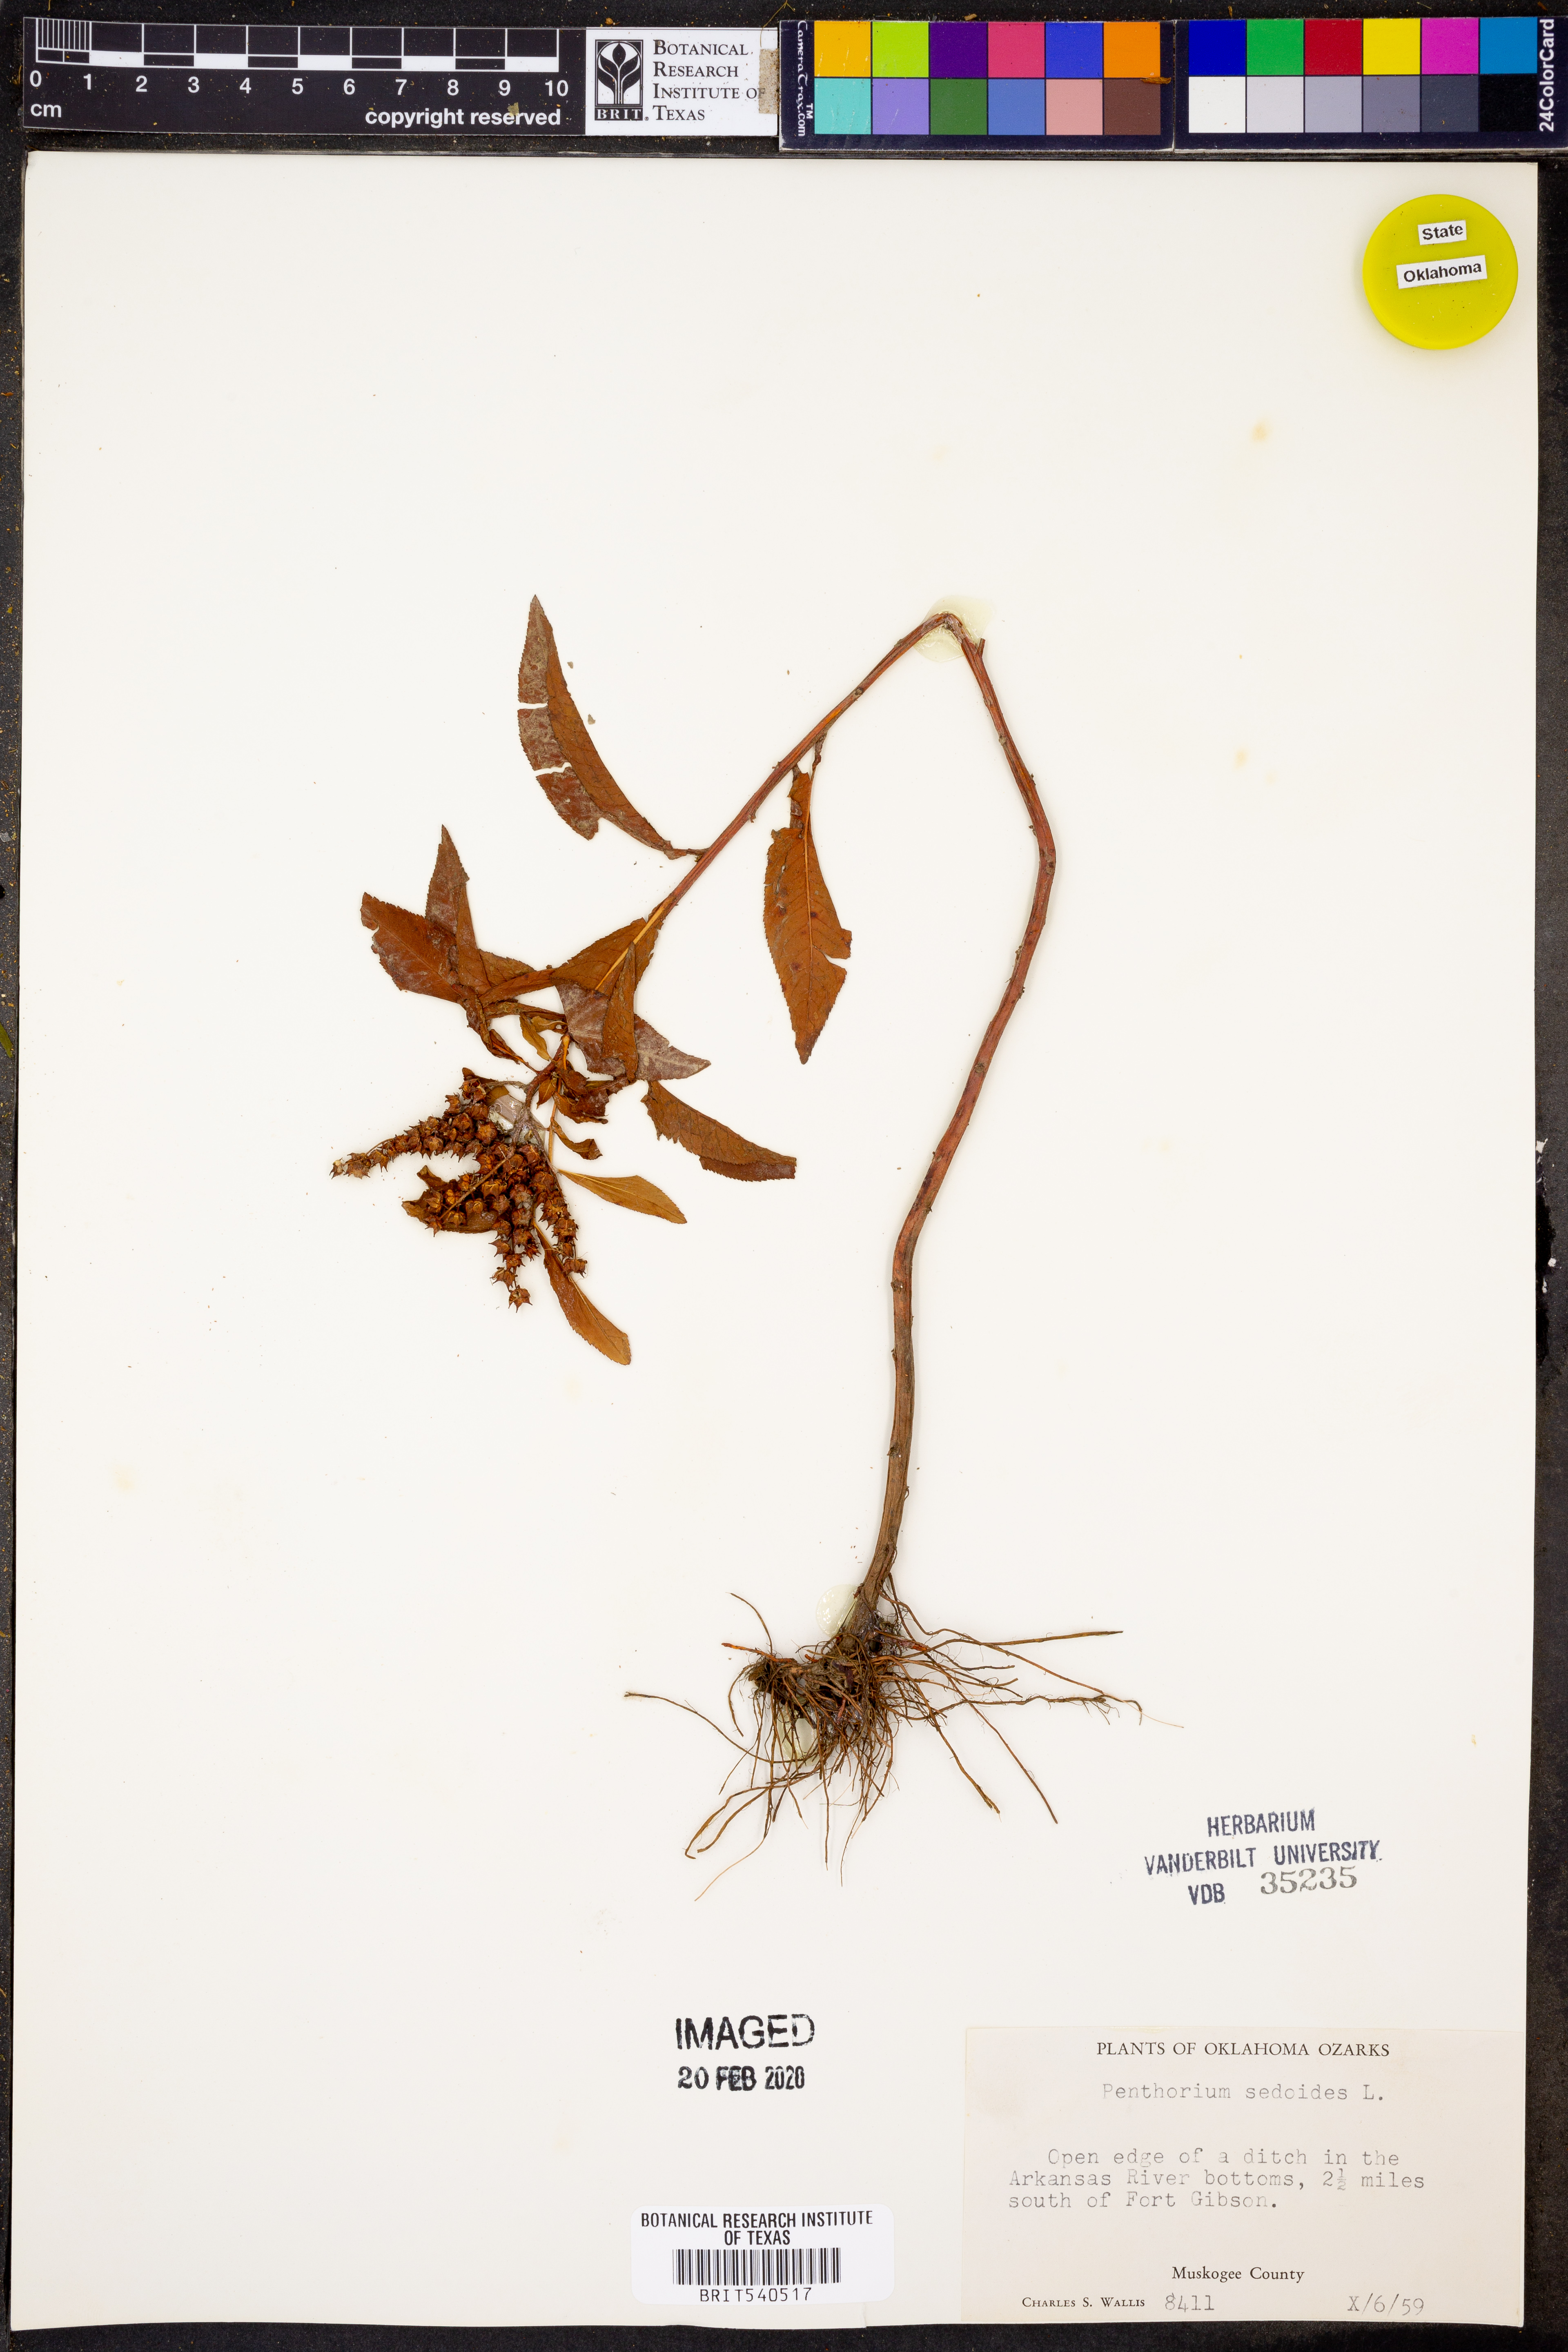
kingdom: Plantae
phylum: Tracheophyta
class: Magnoliopsida
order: Saxifragales
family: Penthoraceae
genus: Penthorum
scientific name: Penthorum sedoides
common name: Ditch stonecrop
